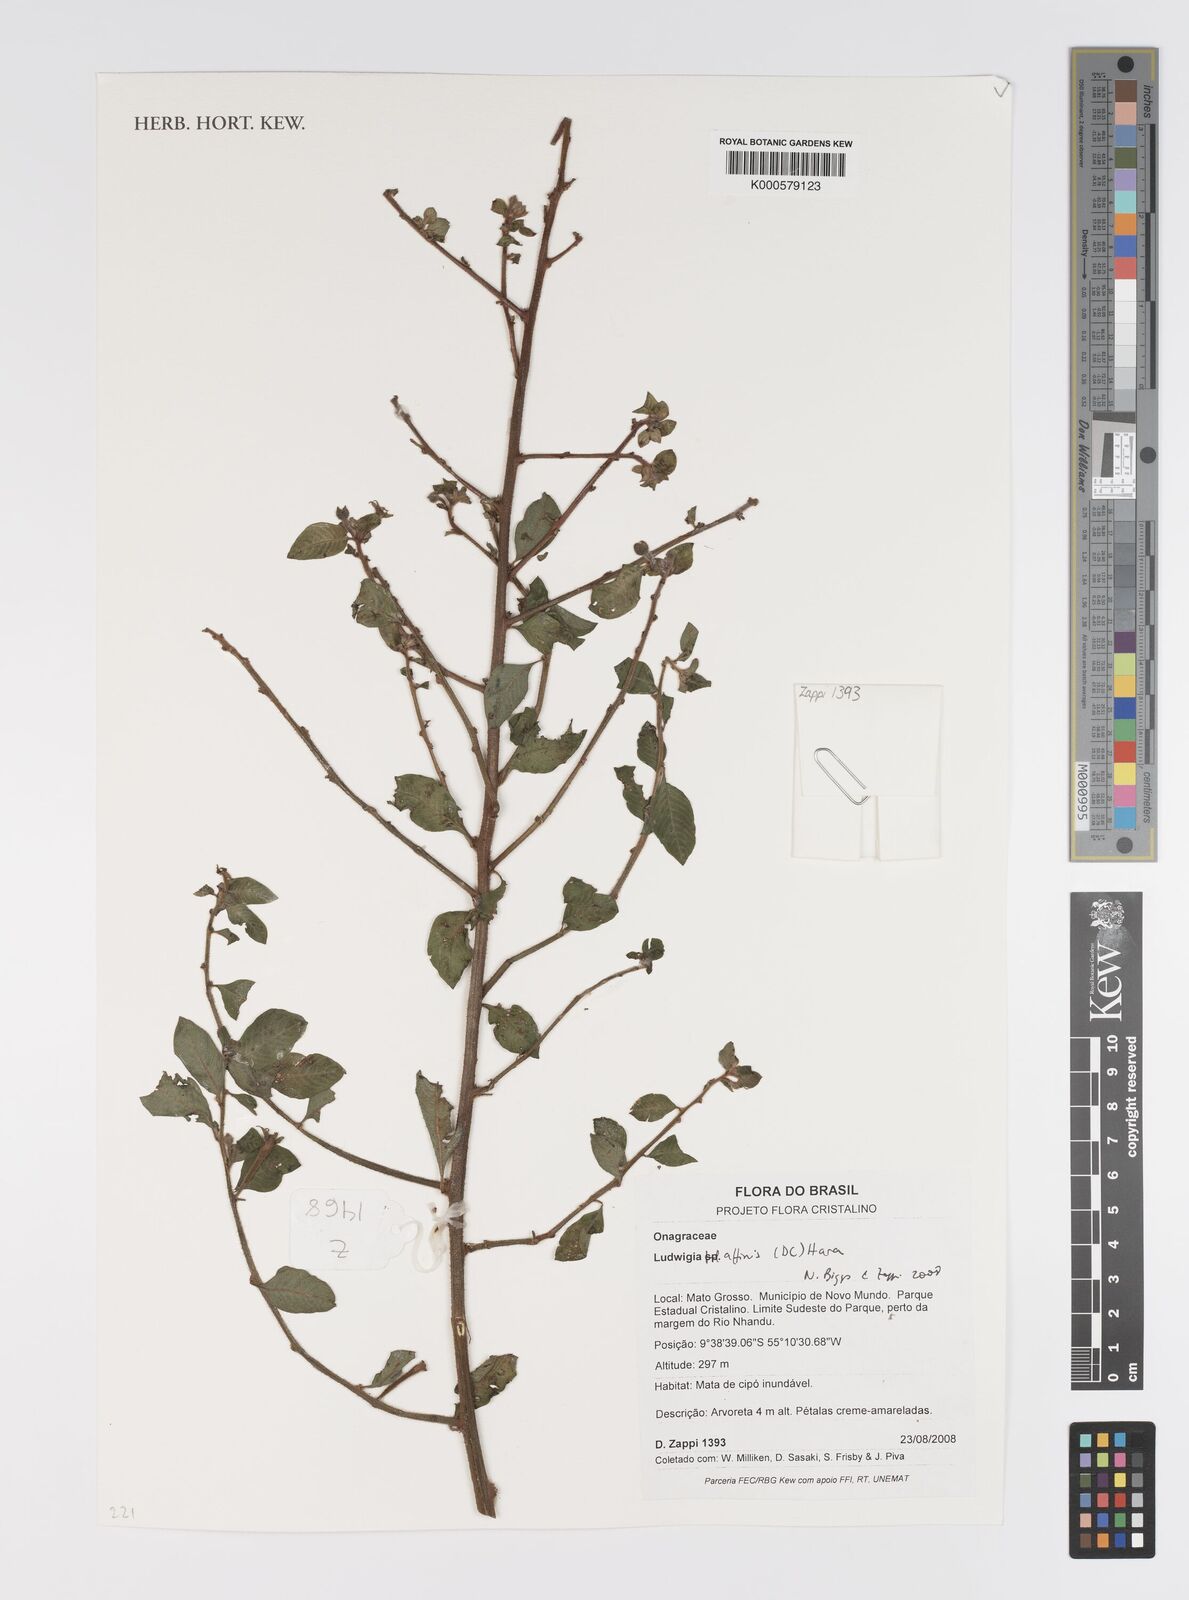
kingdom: Plantae
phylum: Tracheophyta
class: Magnoliopsida
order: Myrtales
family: Onagraceae
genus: Ludwigia
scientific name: Ludwigia affinis
